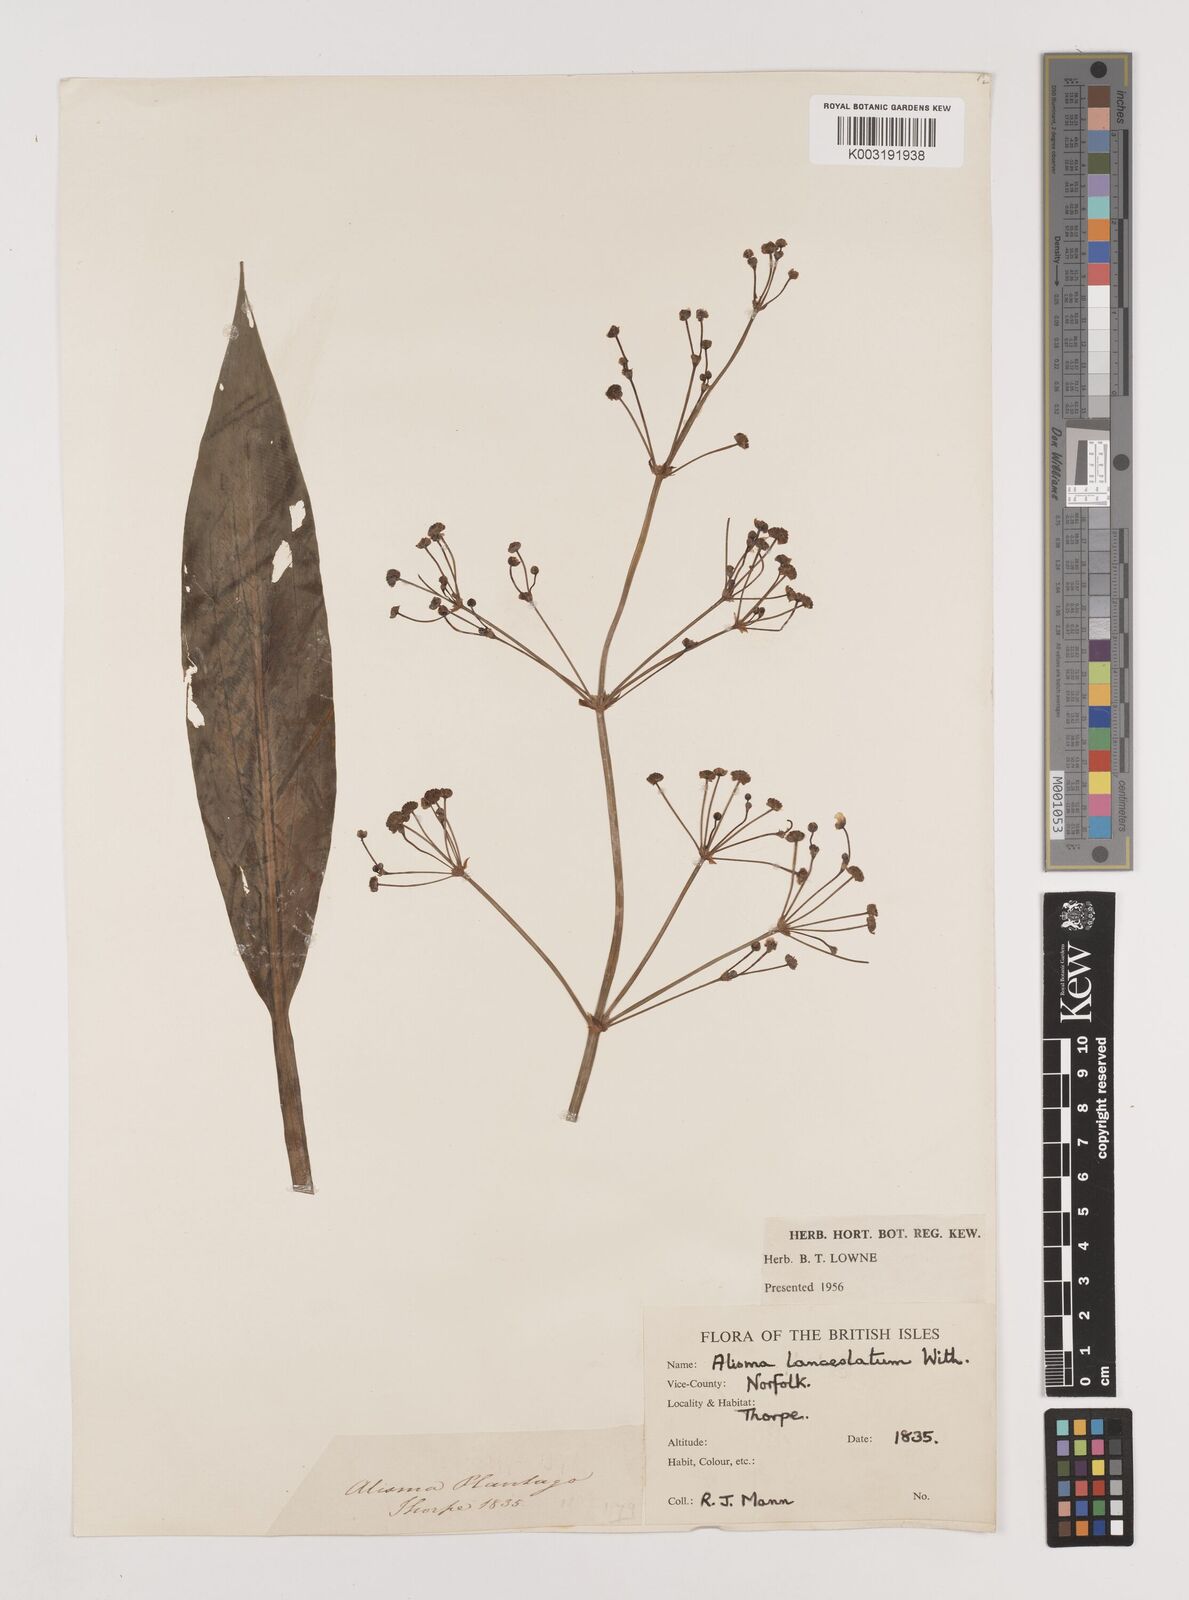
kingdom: Plantae
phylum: Tracheophyta
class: Liliopsida
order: Alismatales
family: Alismataceae
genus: Alisma
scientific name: Alisma lanceolatum
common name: Narrow-leaved water-plantain
